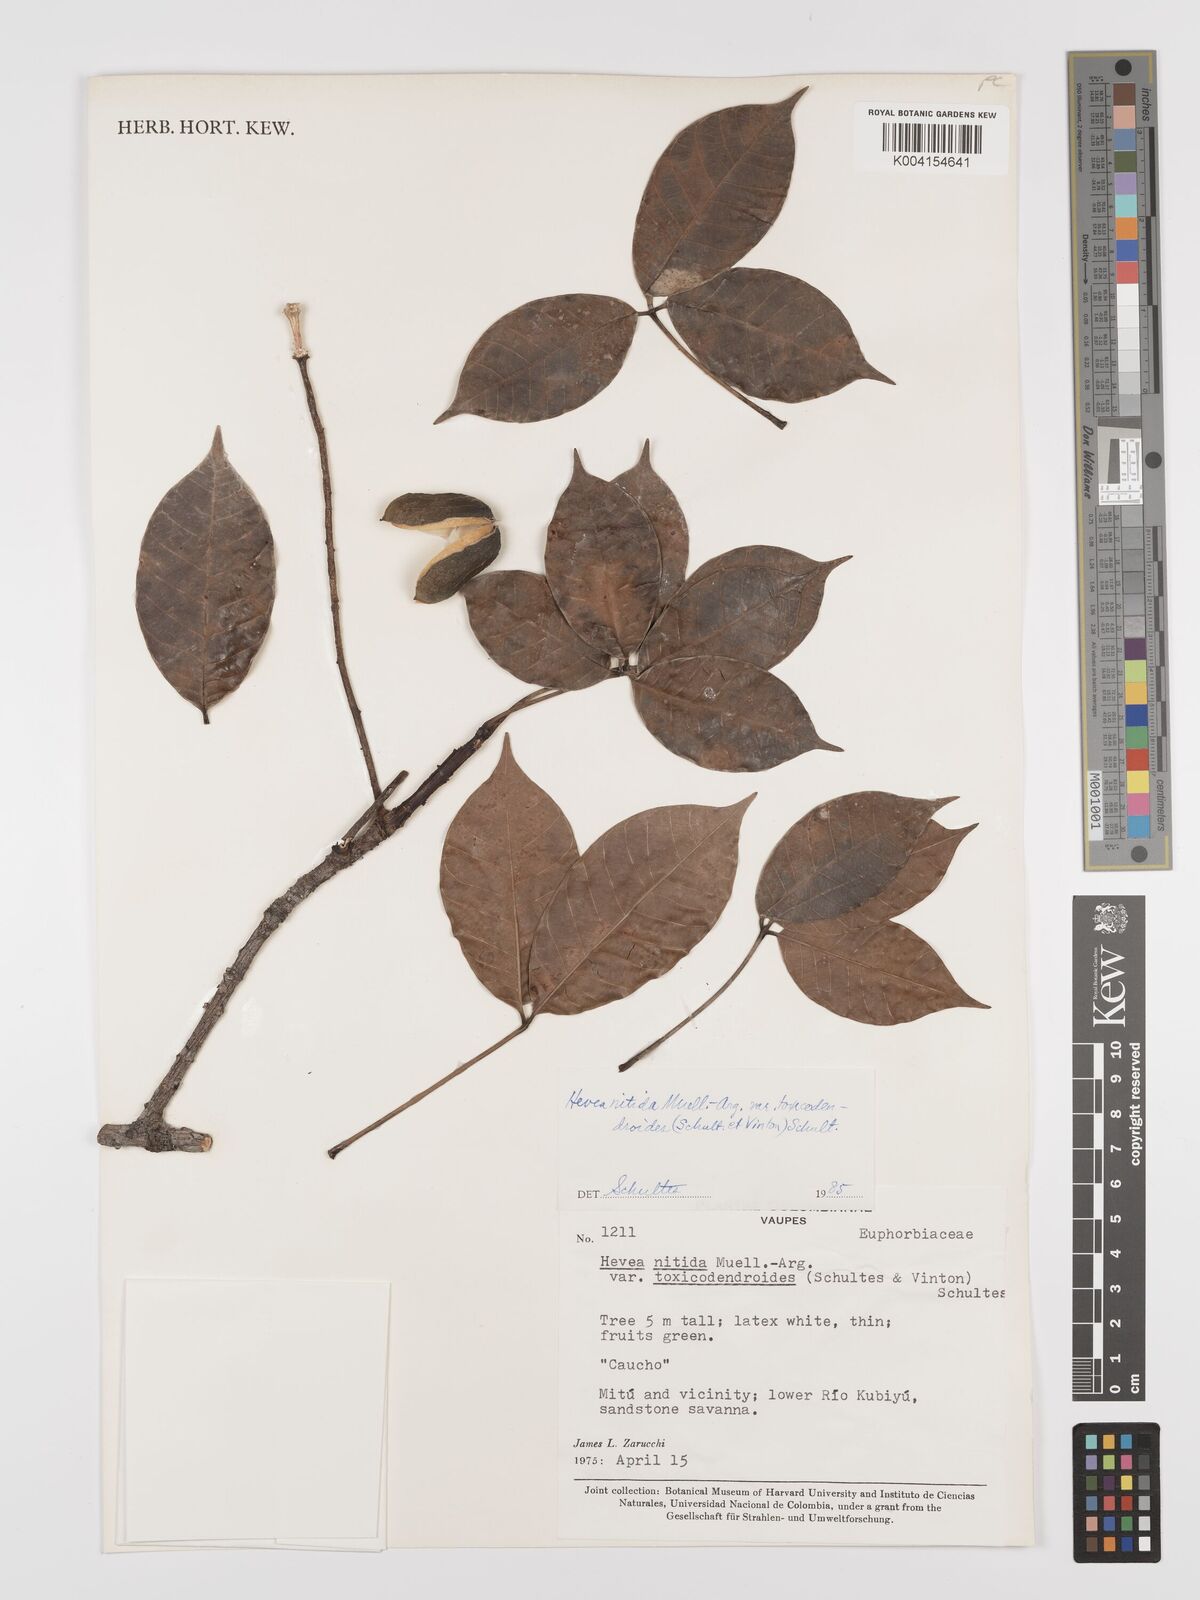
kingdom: Plantae
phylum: Tracheophyta
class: Magnoliopsida
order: Malpighiales
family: Euphorbiaceae
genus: Hevea
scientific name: Hevea nitida
